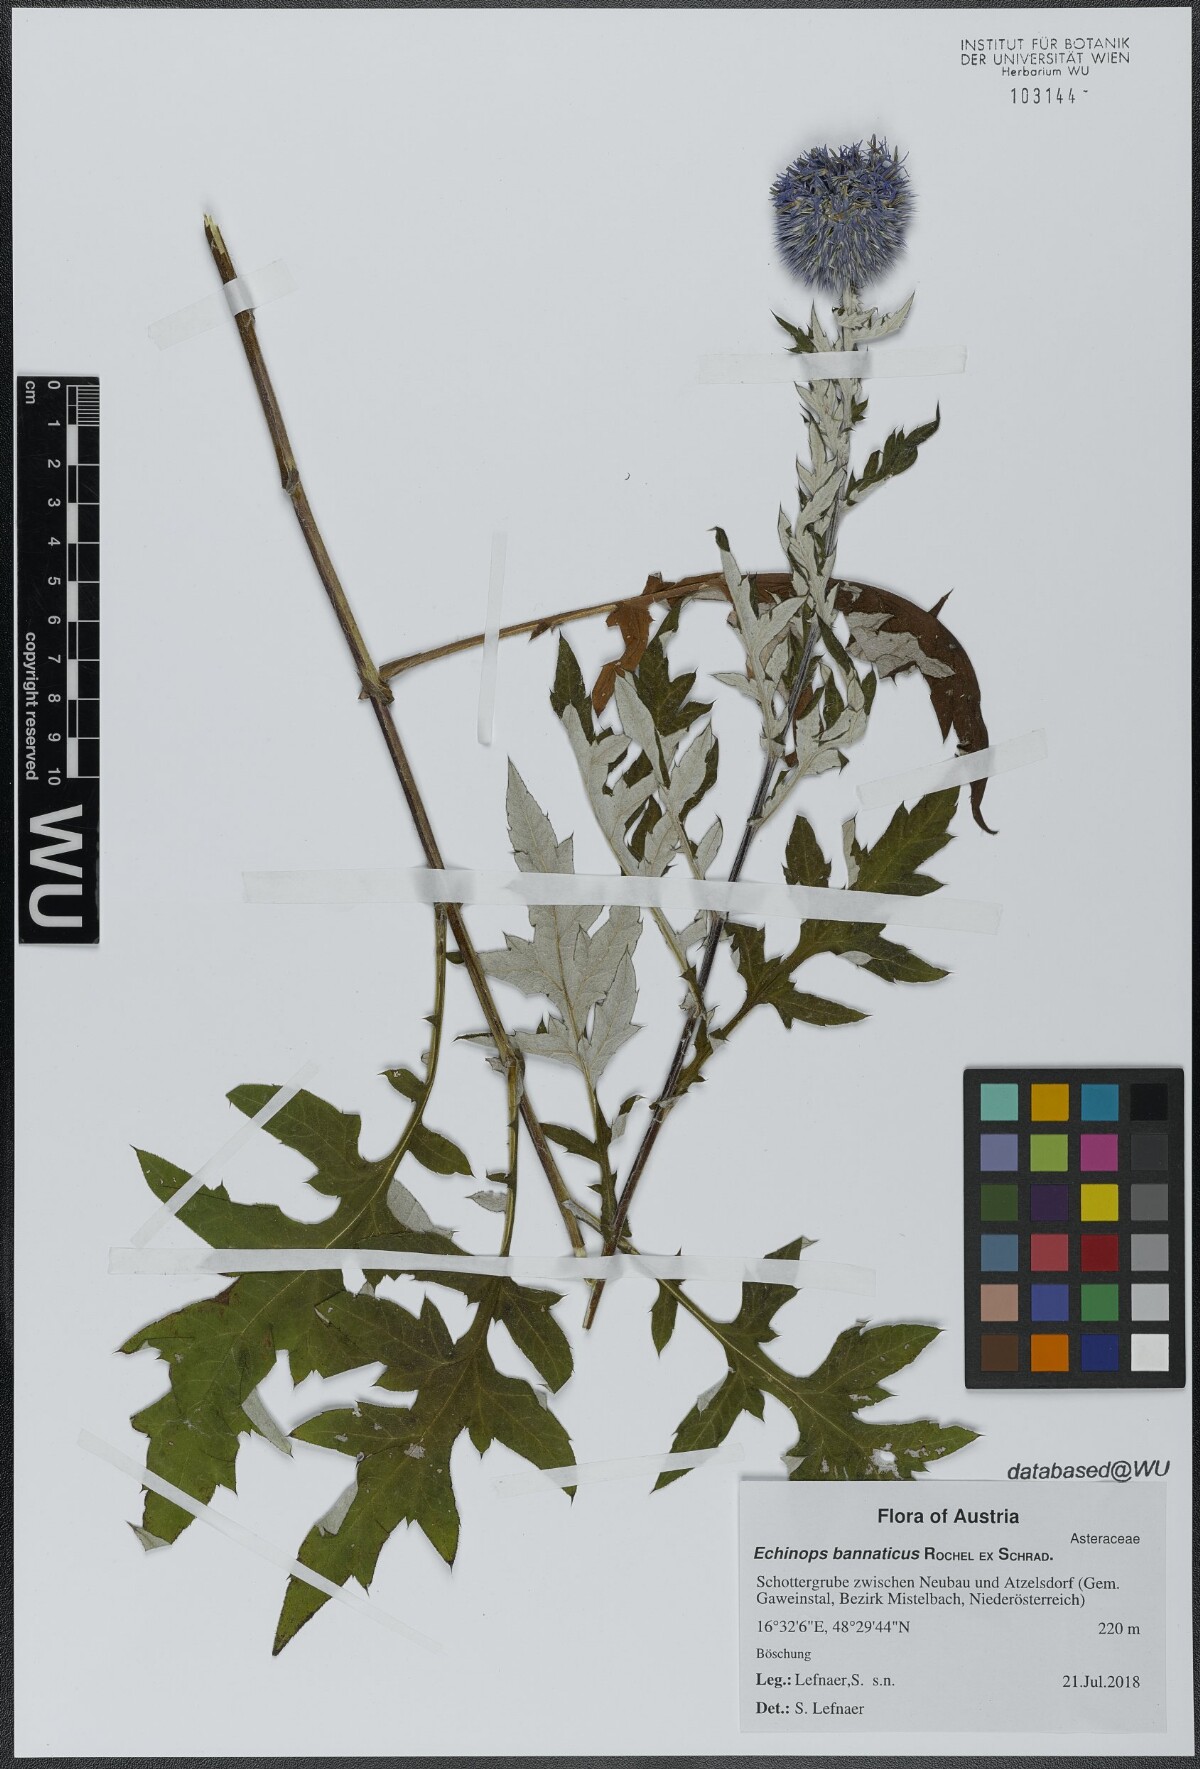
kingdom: Plantae
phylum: Tracheophyta
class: Magnoliopsida
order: Asterales
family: Asteraceae
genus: Echinops
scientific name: Echinops bannaticus
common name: Blue globe-thistle
